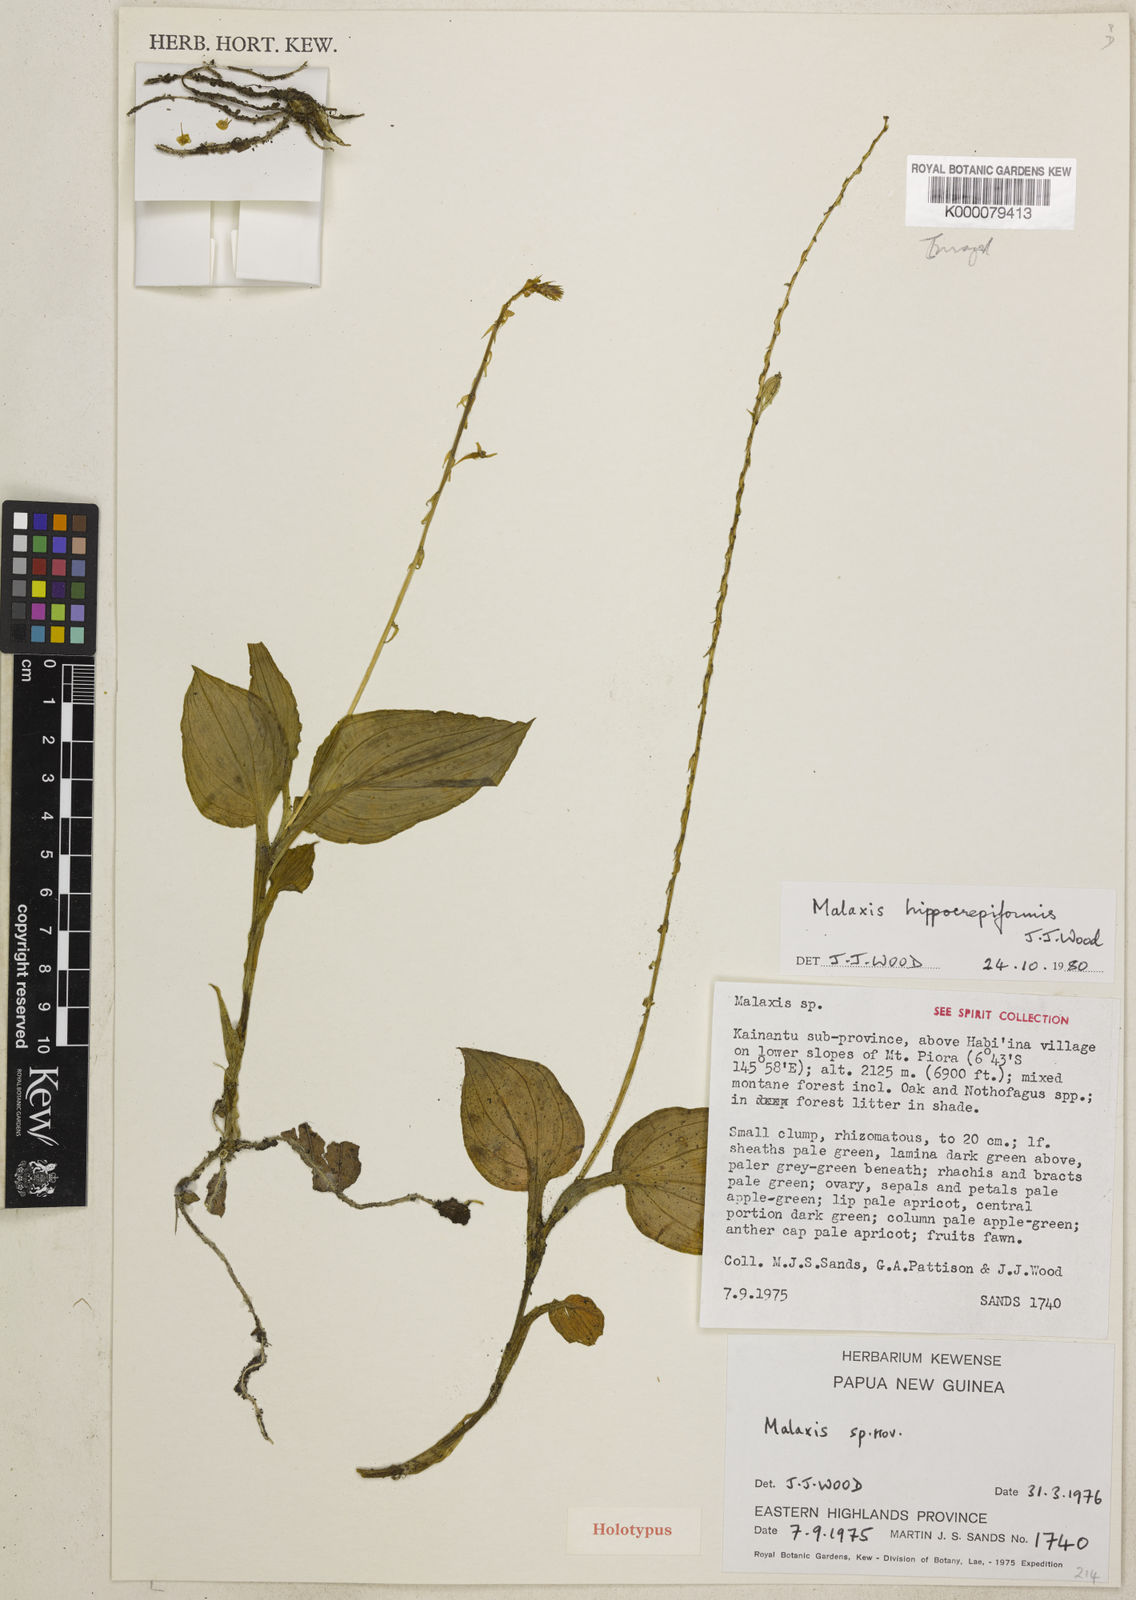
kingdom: Plantae
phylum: Tracheophyta
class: Liliopsida
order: Asparagales
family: Orchidaceae
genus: Crepidium
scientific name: Crepidium hippocrepiforme
